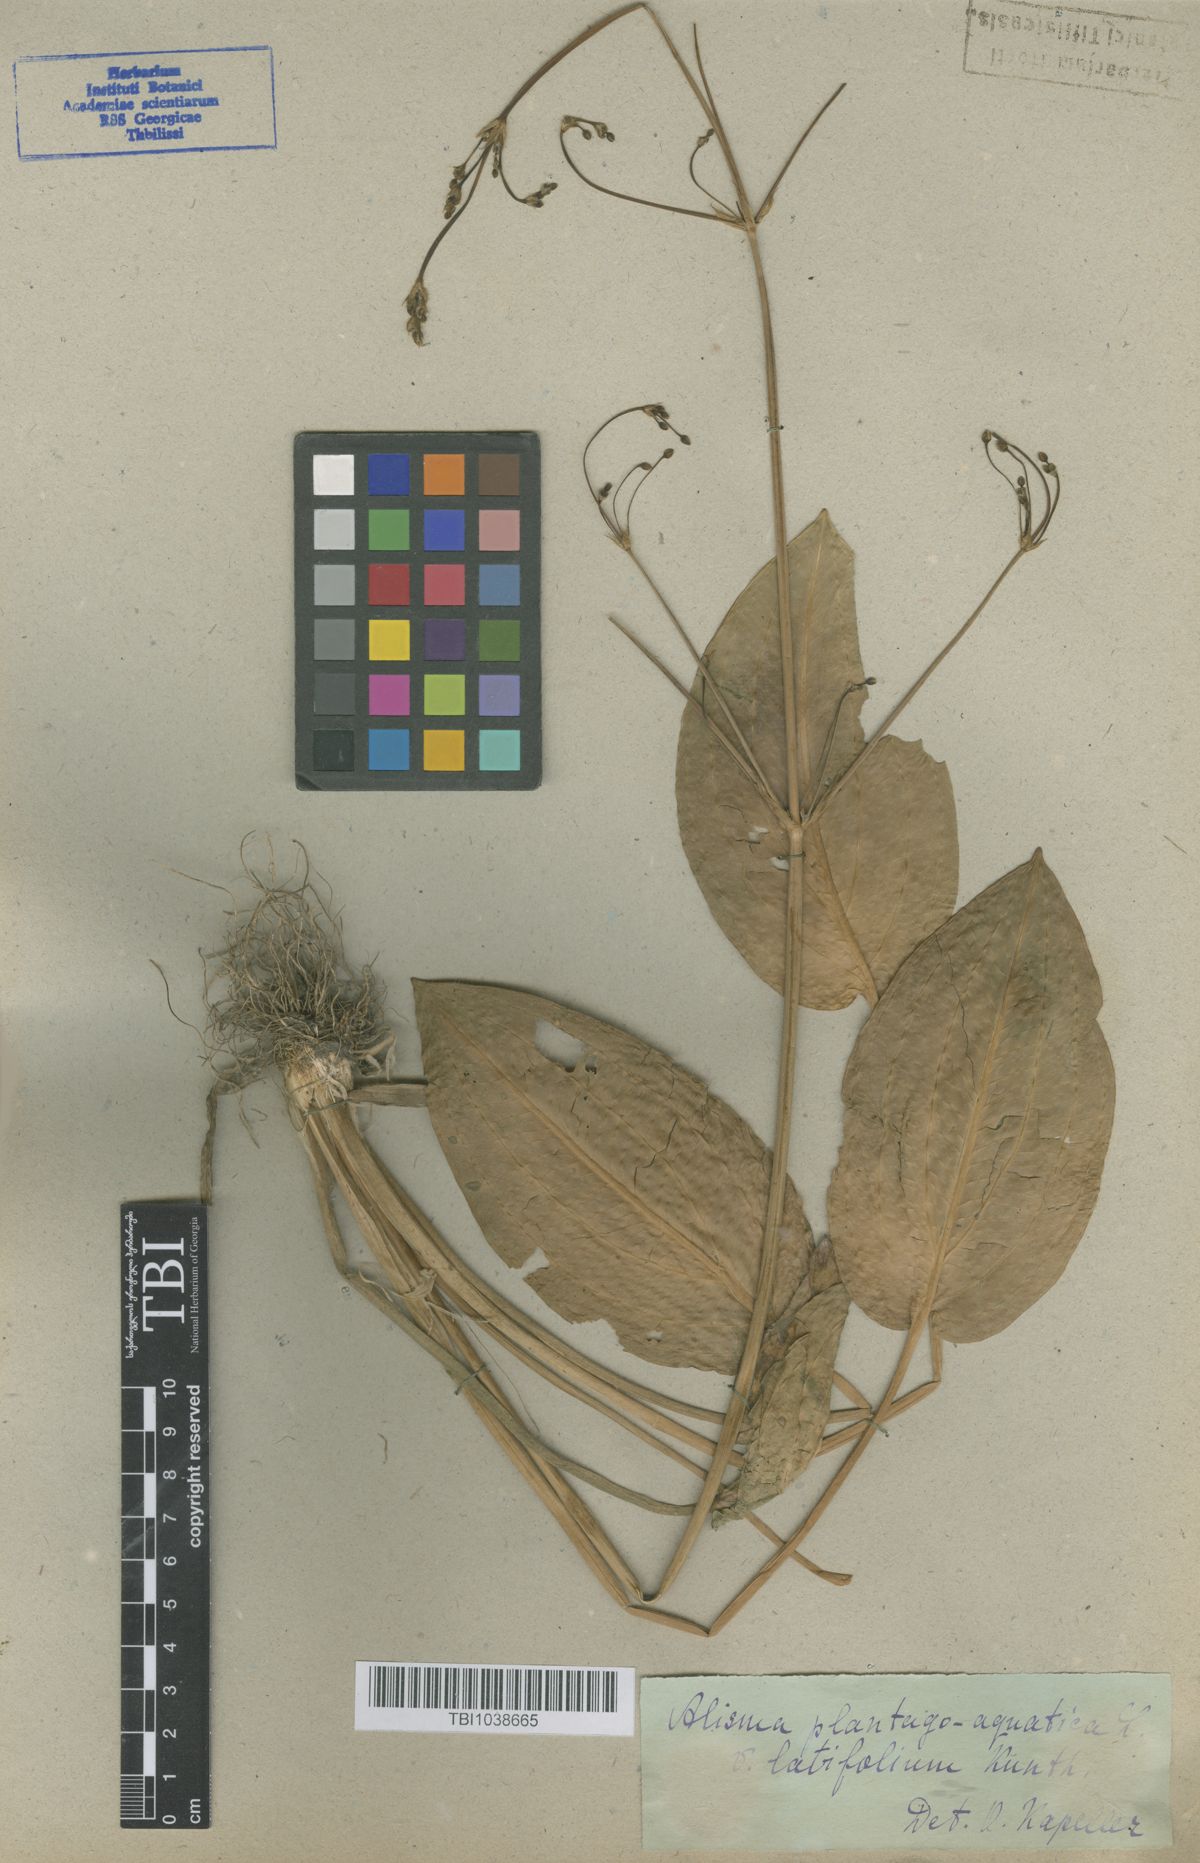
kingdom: Plantae
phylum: Tracheophyta
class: Liliopsida
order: Alismatales
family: Alismataceae
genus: Alisma
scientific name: Alisma plantago-aquatica
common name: Water-plantain
